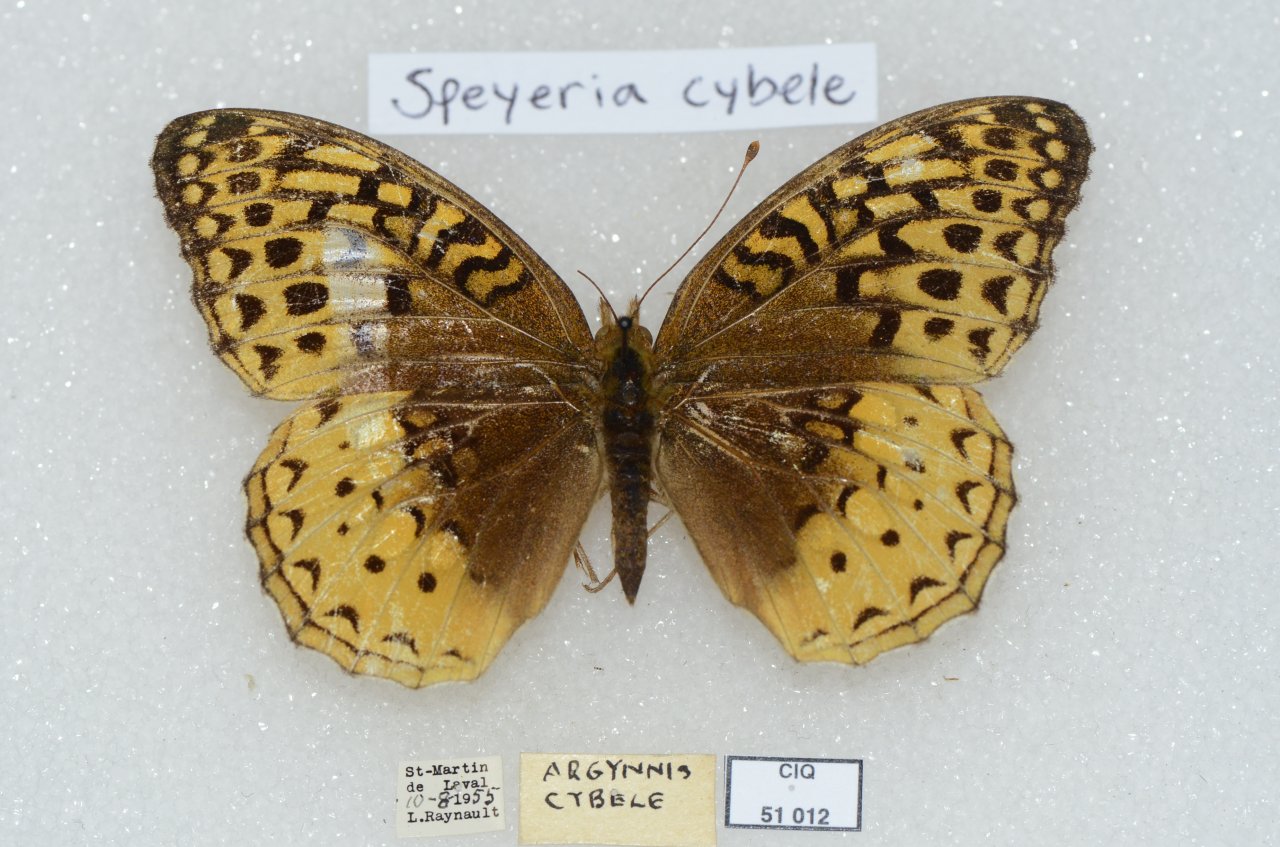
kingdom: Animalia
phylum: Arthropoda
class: Insecta
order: Lepidoptera
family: Nymphalidae
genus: Speyeria
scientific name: Speyeria cybele
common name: Great Spangled Fritillary
